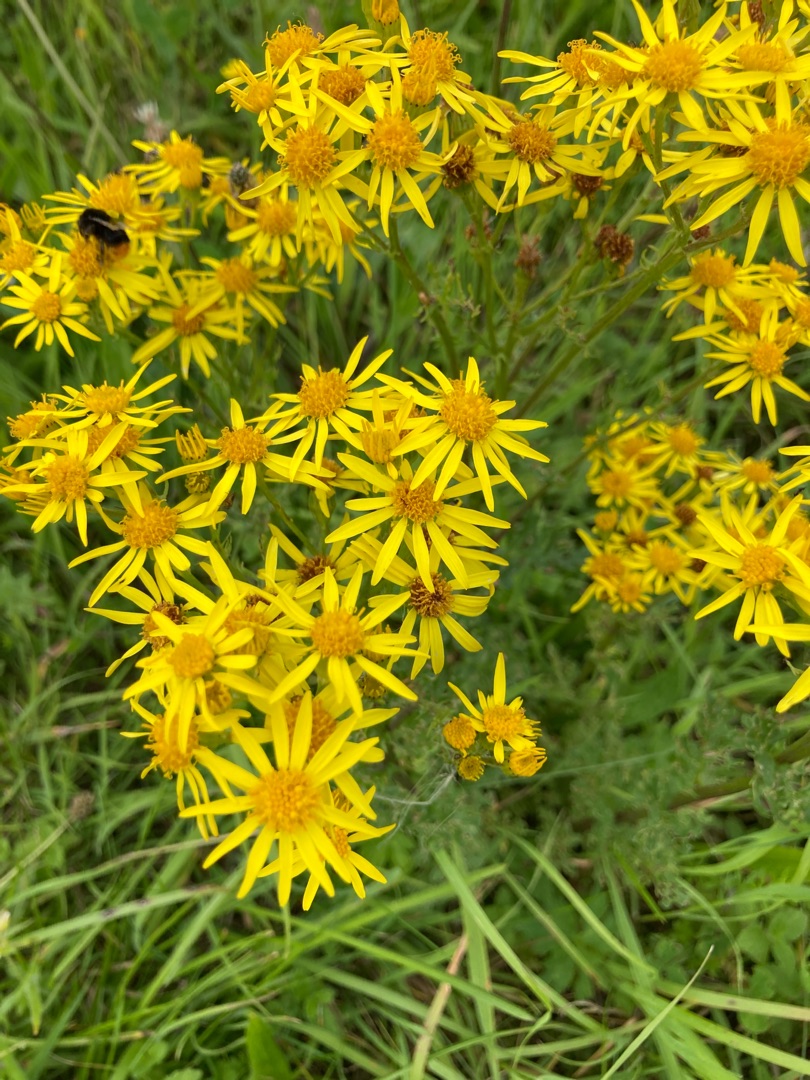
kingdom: Plantae
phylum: Tracheophyta
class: Magnoliopsida
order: Asterales
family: Asteraceae
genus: Jacobaea
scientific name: Jacobaea vulgaris
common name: Eng-brandbæger
